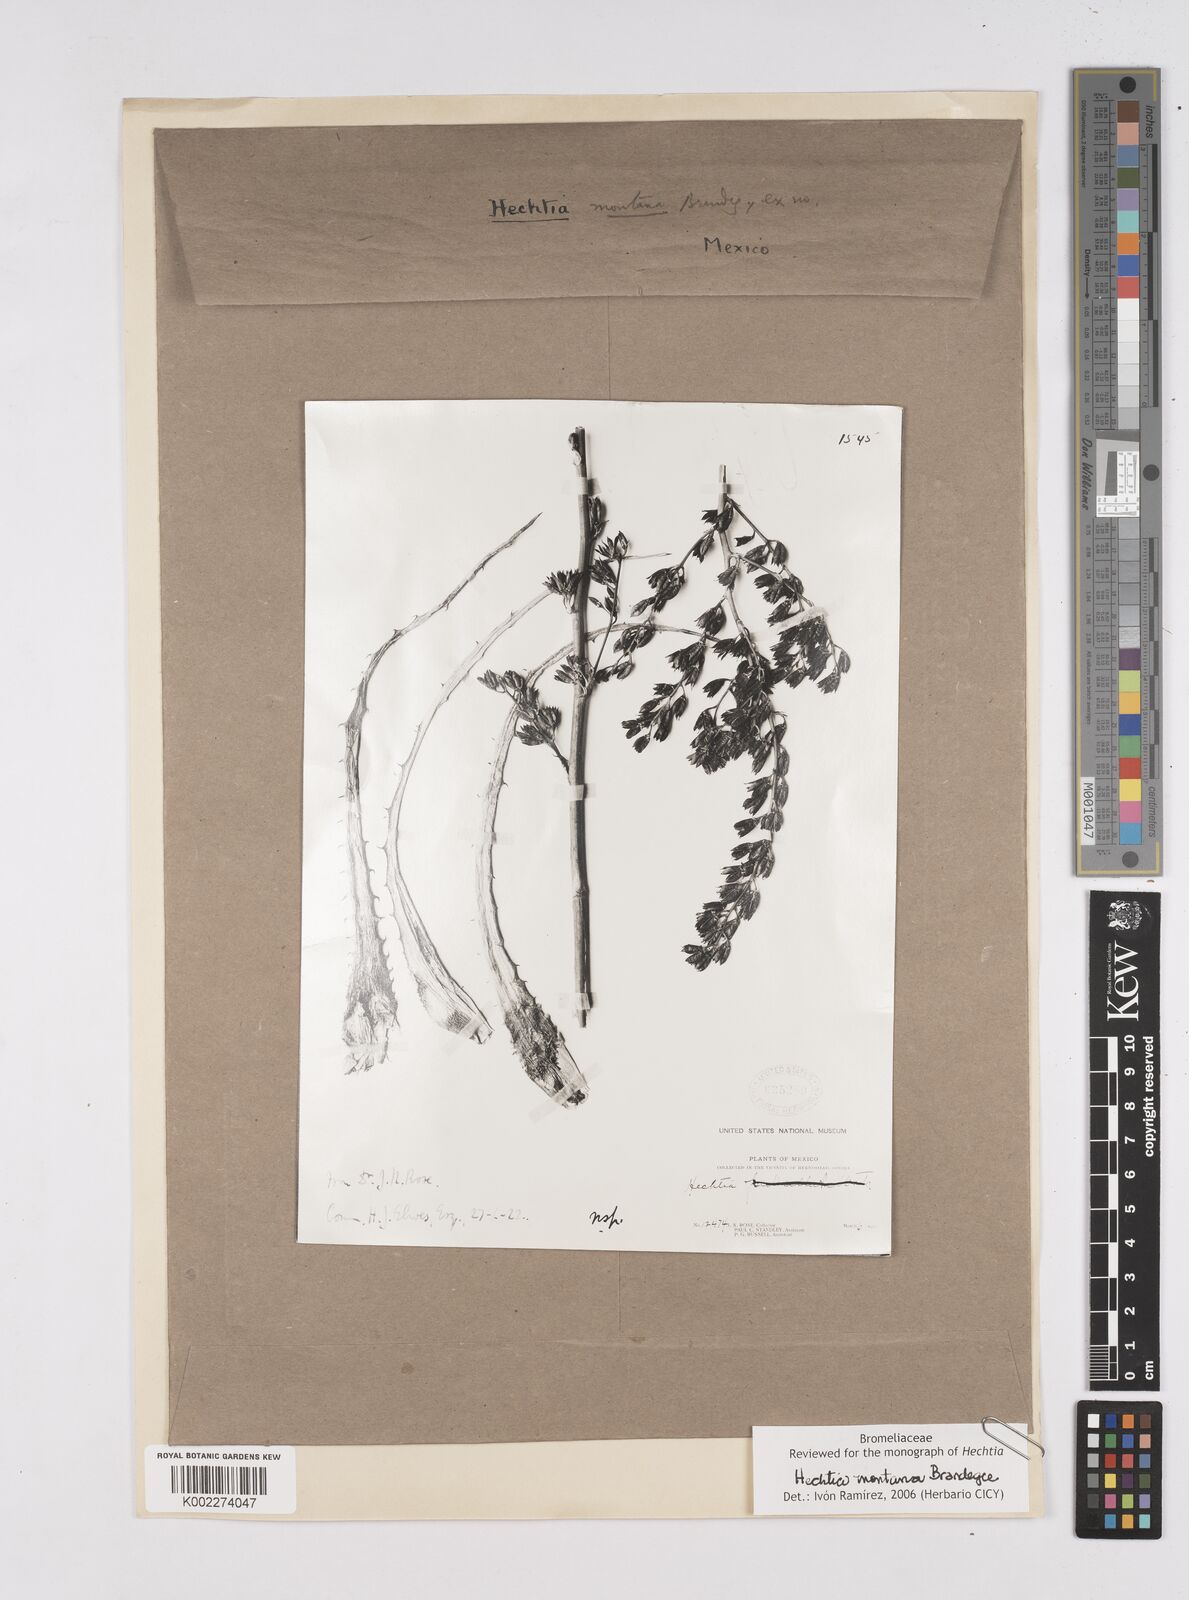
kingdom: Plantae
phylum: Tracheophyta
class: Liliopsida
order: Poales
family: Bromeliaceae
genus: Hechtia
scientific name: Hechtia montana
